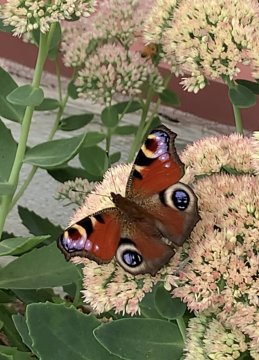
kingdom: Animalia
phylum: Arthropoda
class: Insecta
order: Lepidoptera
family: Nymphalidae
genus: Aglais
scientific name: Aglais io
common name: European Peacock
